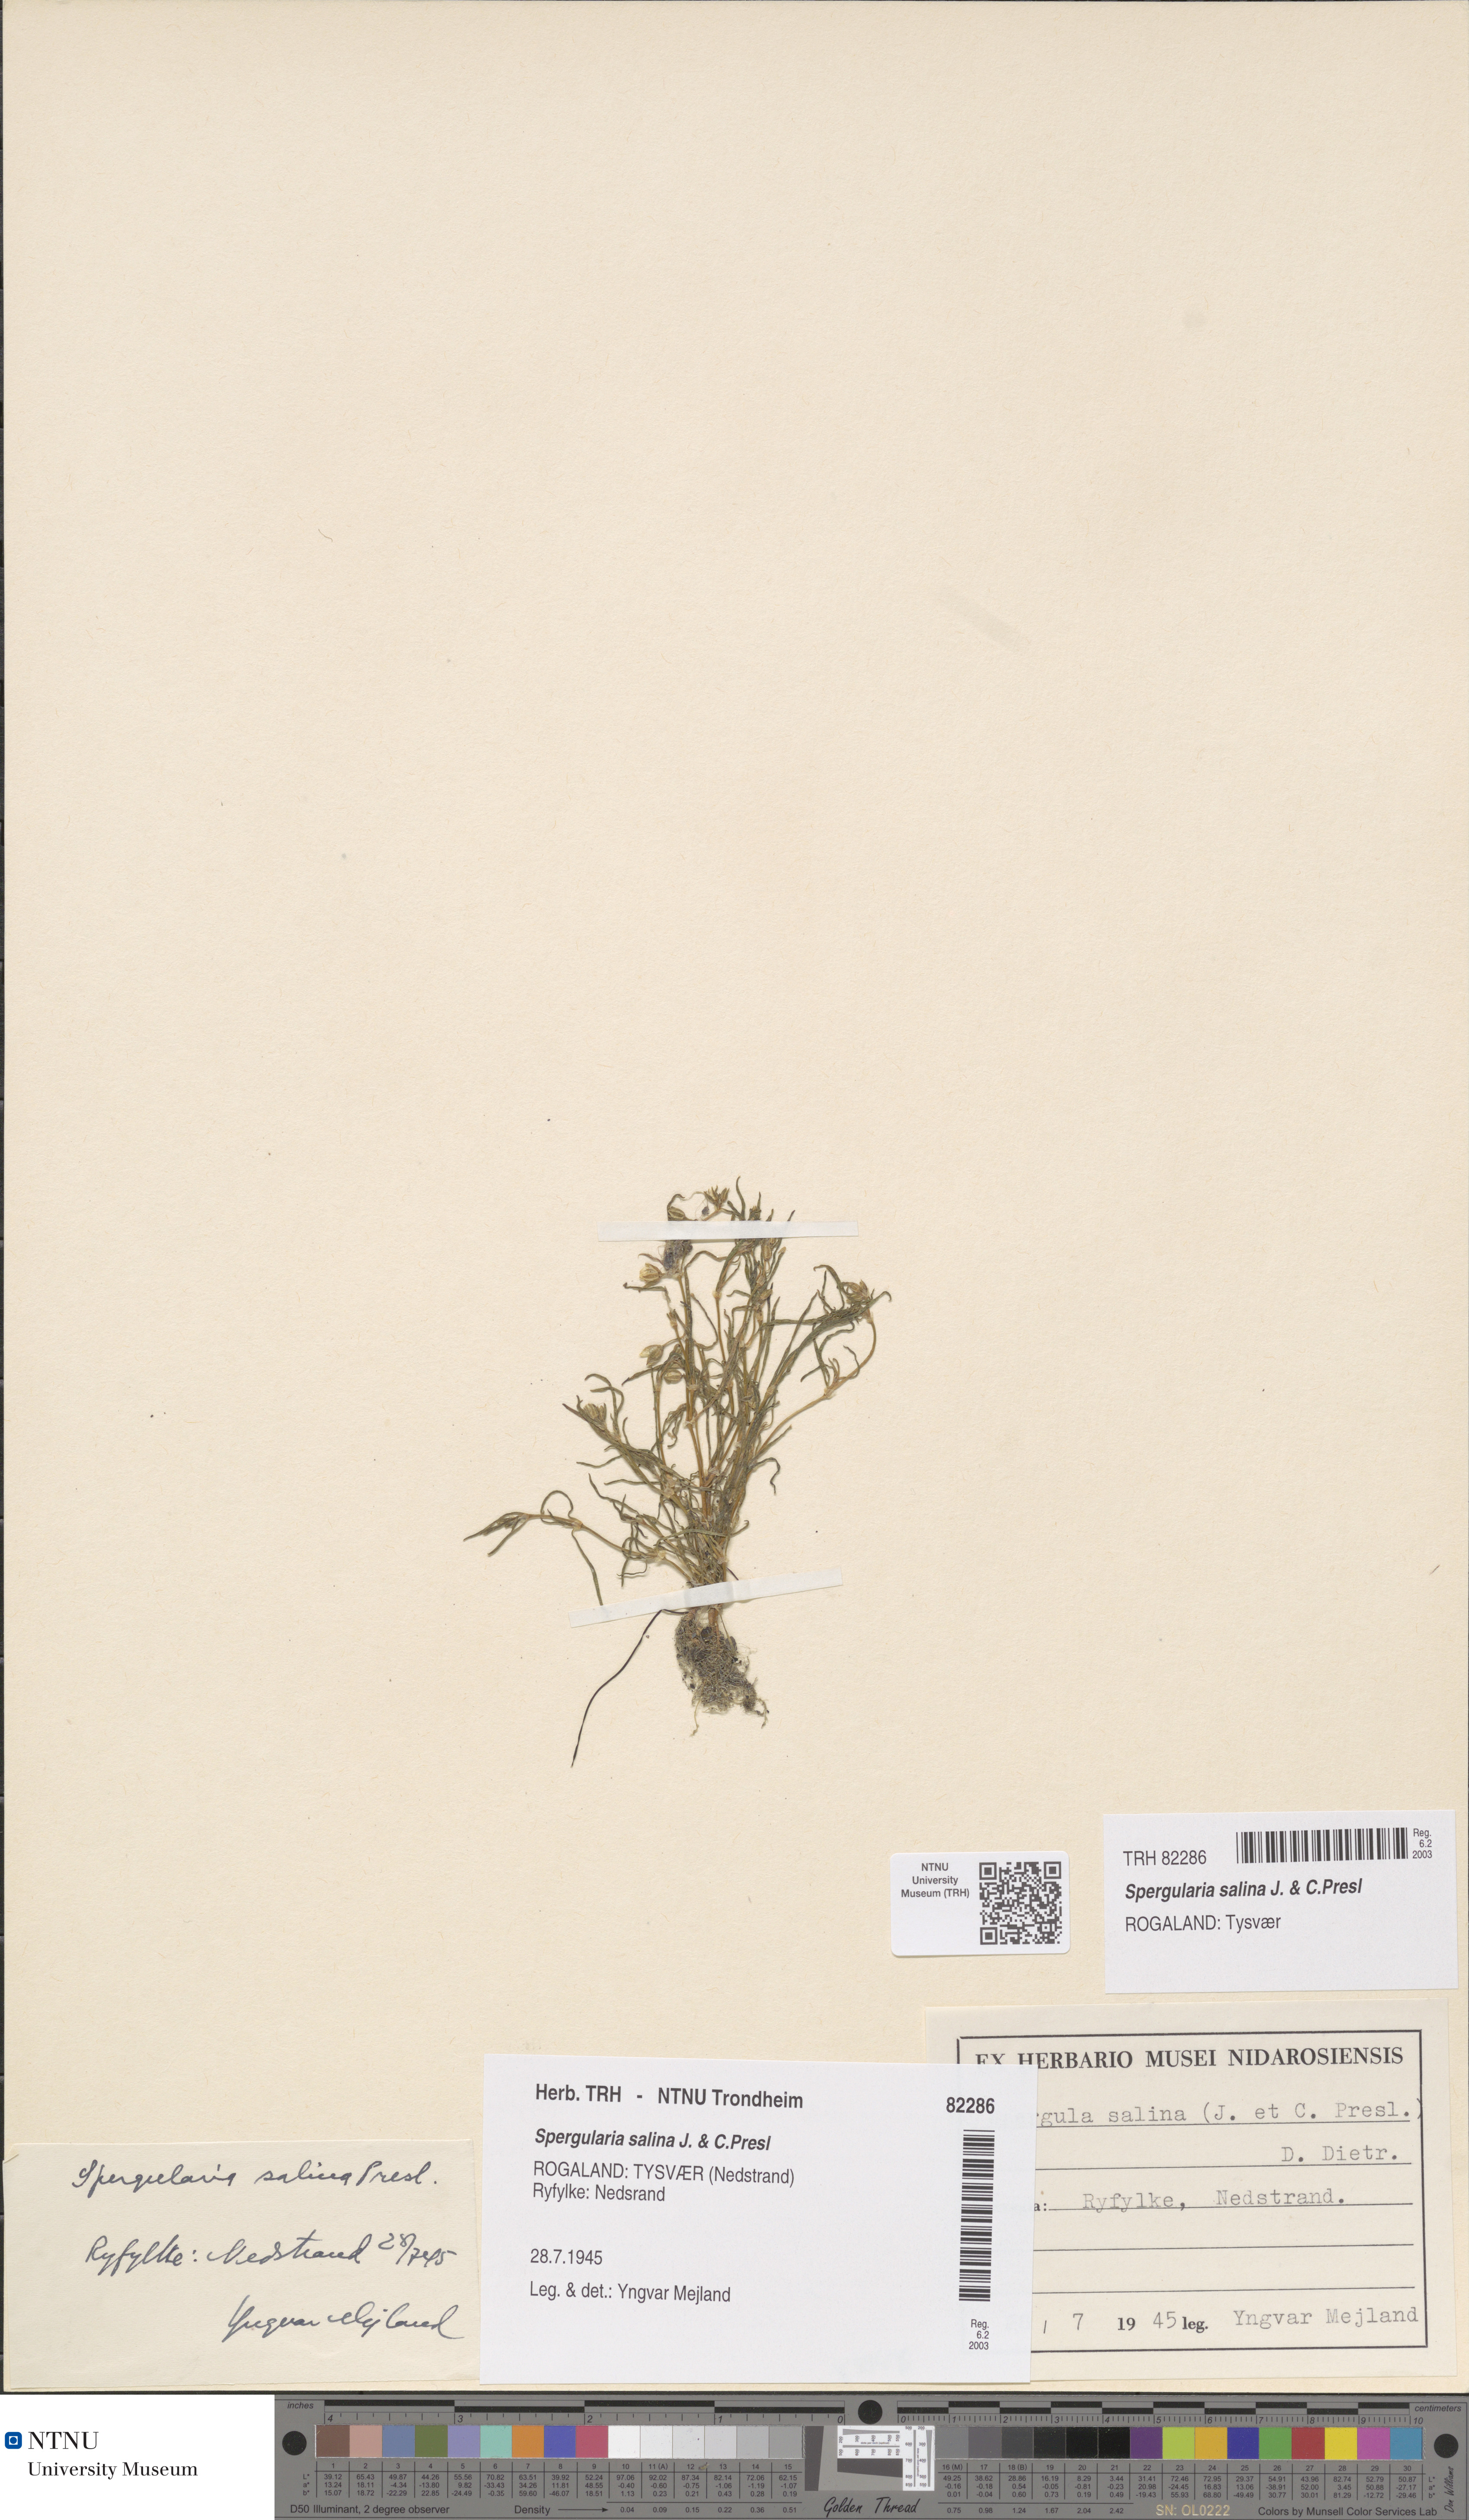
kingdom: Plantae
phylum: Tracheophyta
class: Magnoliopsida
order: Caryophyllales
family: Caryophyllaceae
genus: Spergularia
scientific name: Spergularia marina
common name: Lesser sea-spurrey
